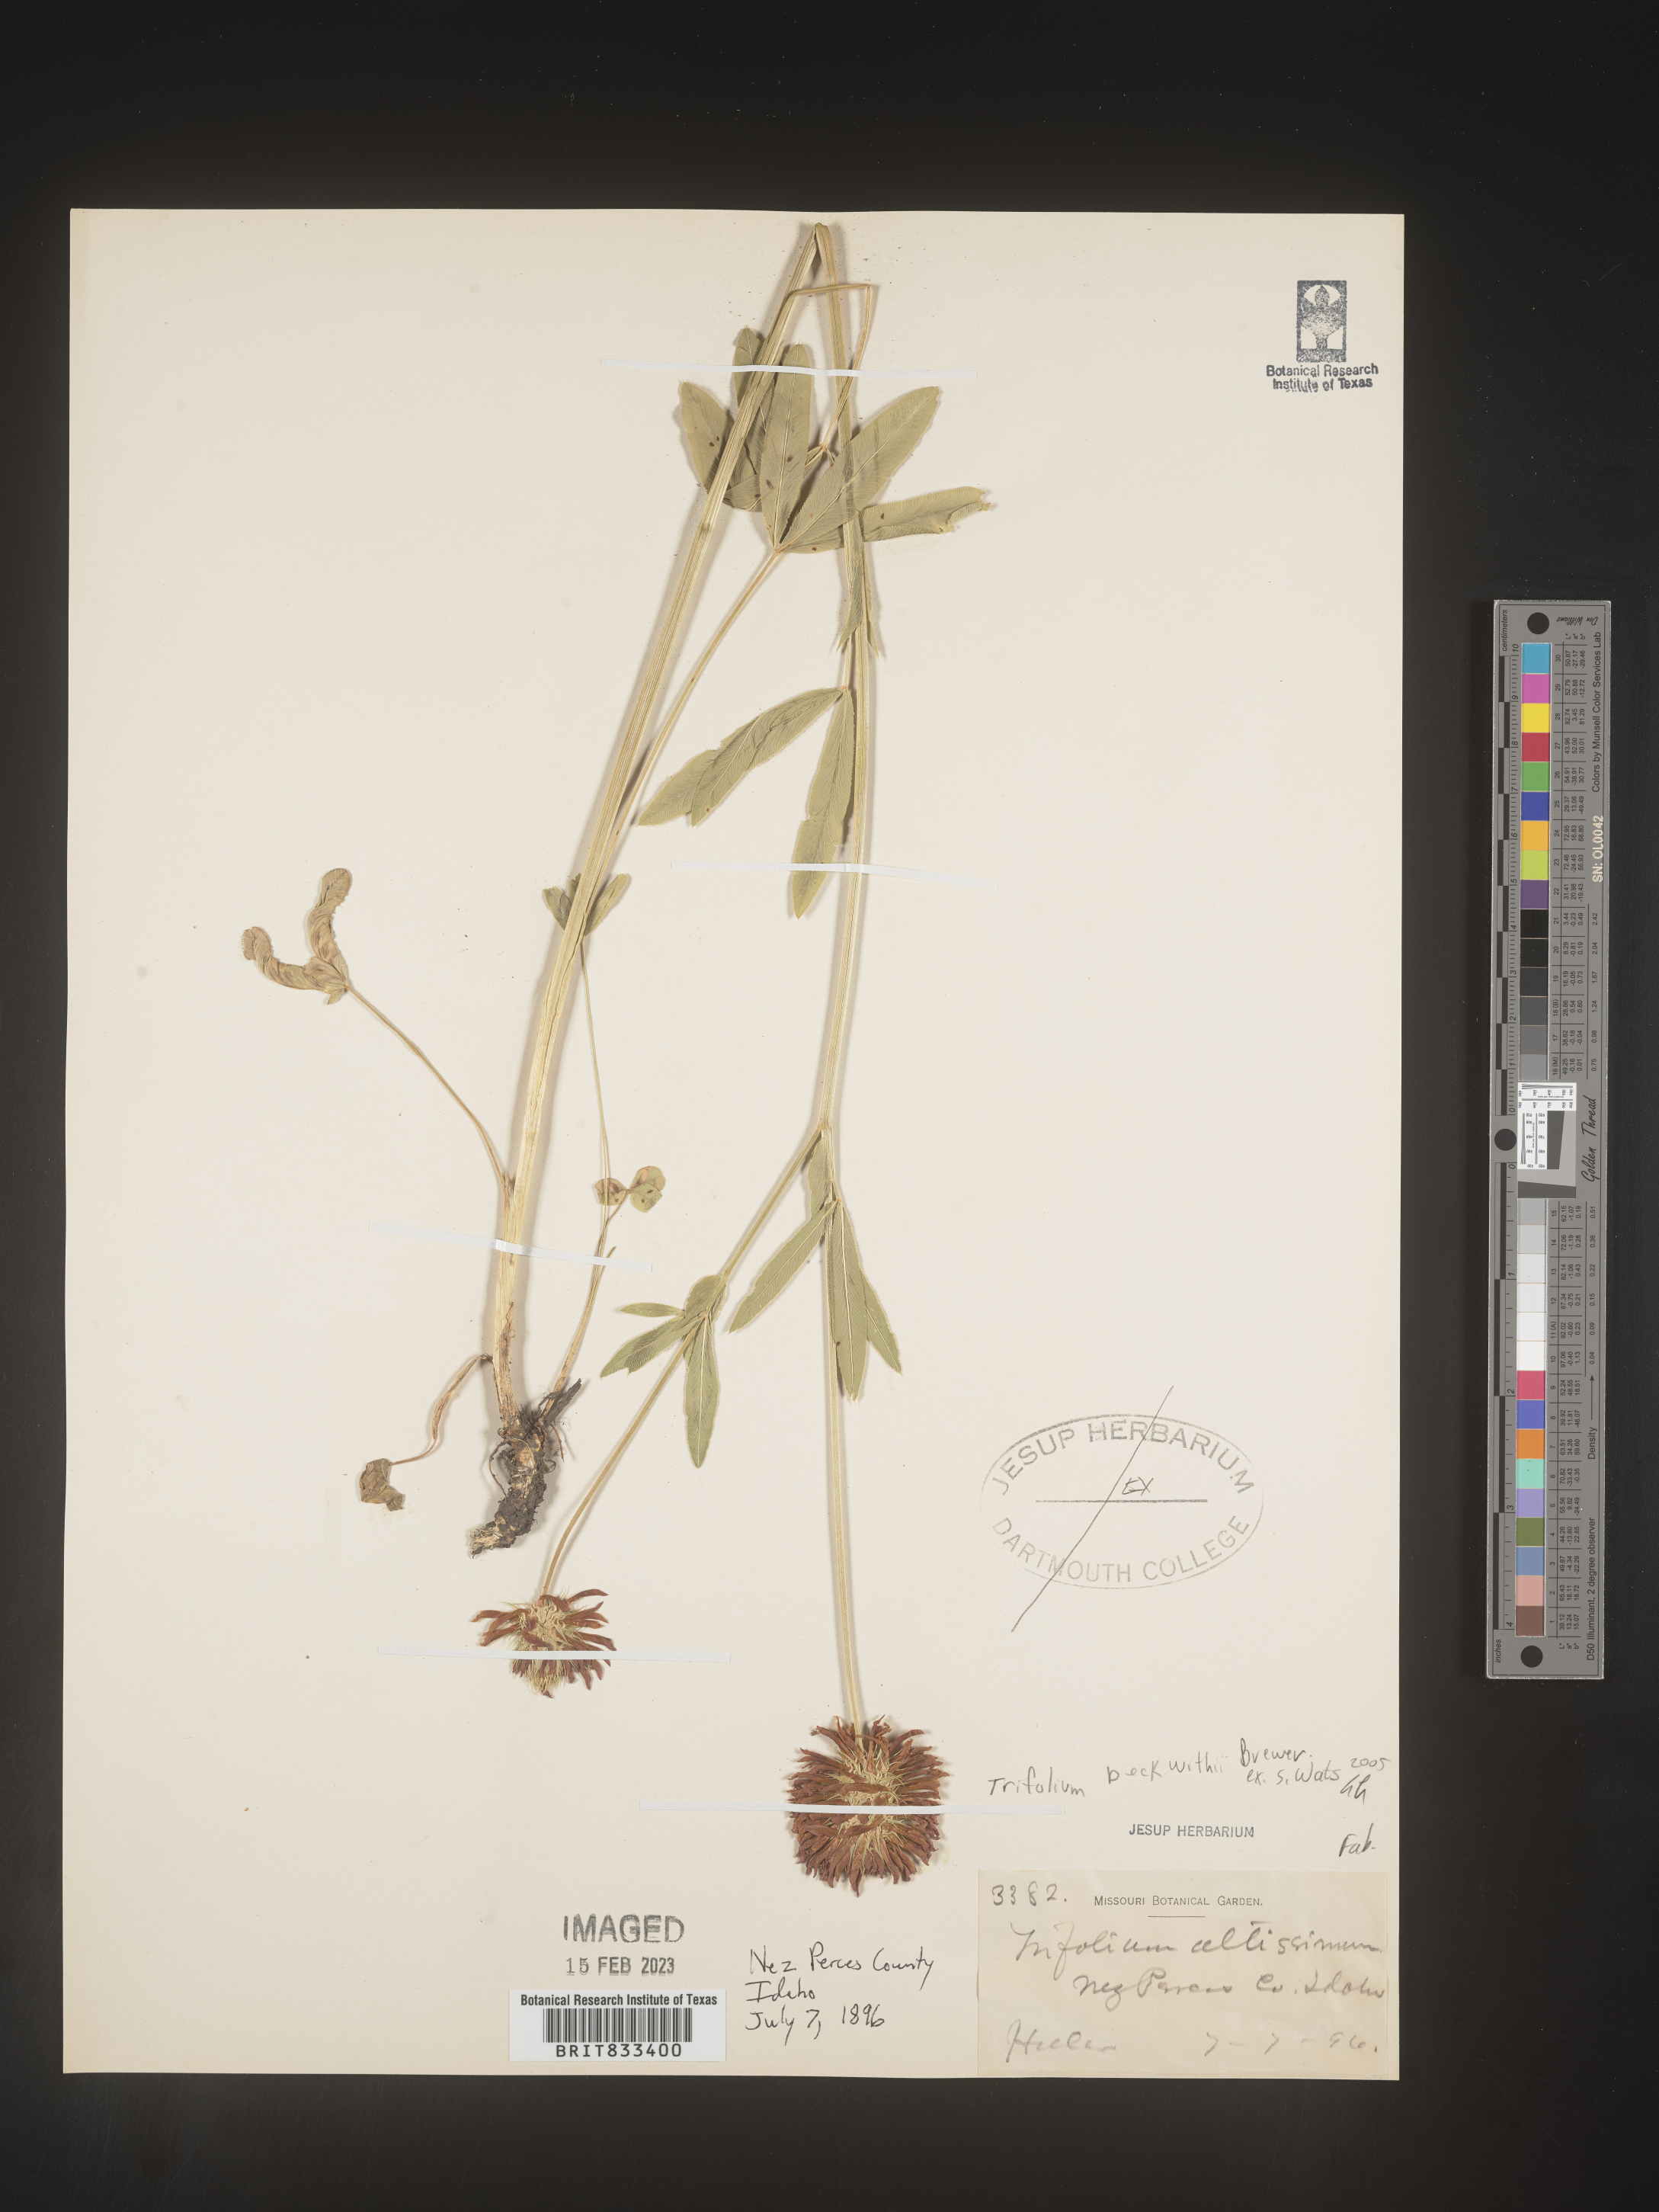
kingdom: Plantae
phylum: Tracheophyta
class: Magnoliopsida
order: Fabales
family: Fabaceae
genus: Trifolium
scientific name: Trifolium
